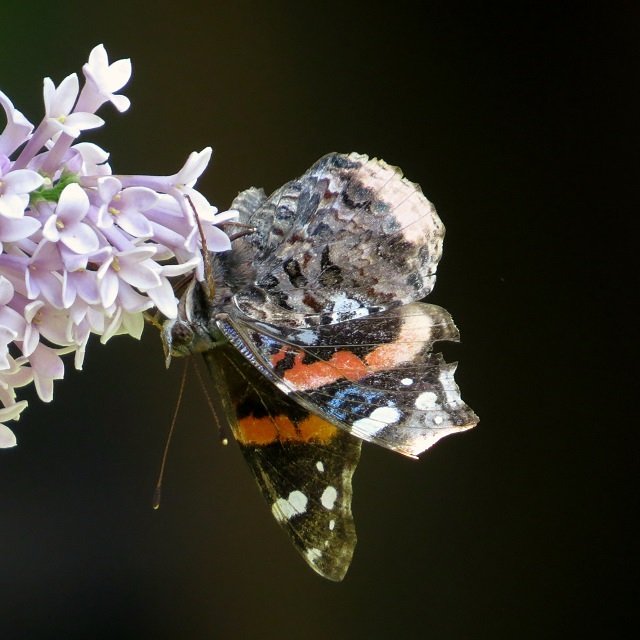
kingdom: Animalia
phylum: Arthropoda
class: Insecta
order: Lepidoptera
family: Nymphalidae
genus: Vanessa
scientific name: Vanessa atalanta
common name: Red Admiral
